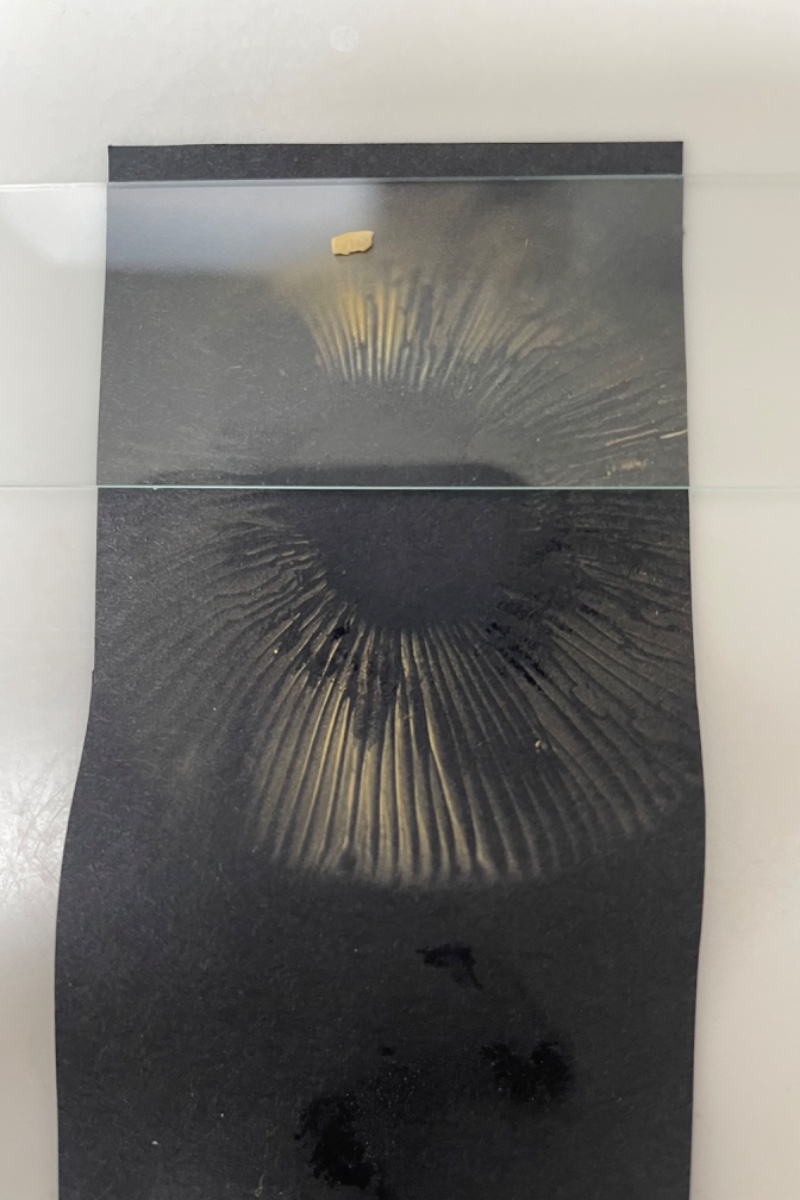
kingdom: Fungi
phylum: Basidiomycota
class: Agaricomycetes
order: Russulales
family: Russulaceae
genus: Russula
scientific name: Russula integra
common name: mandel-skørhat
